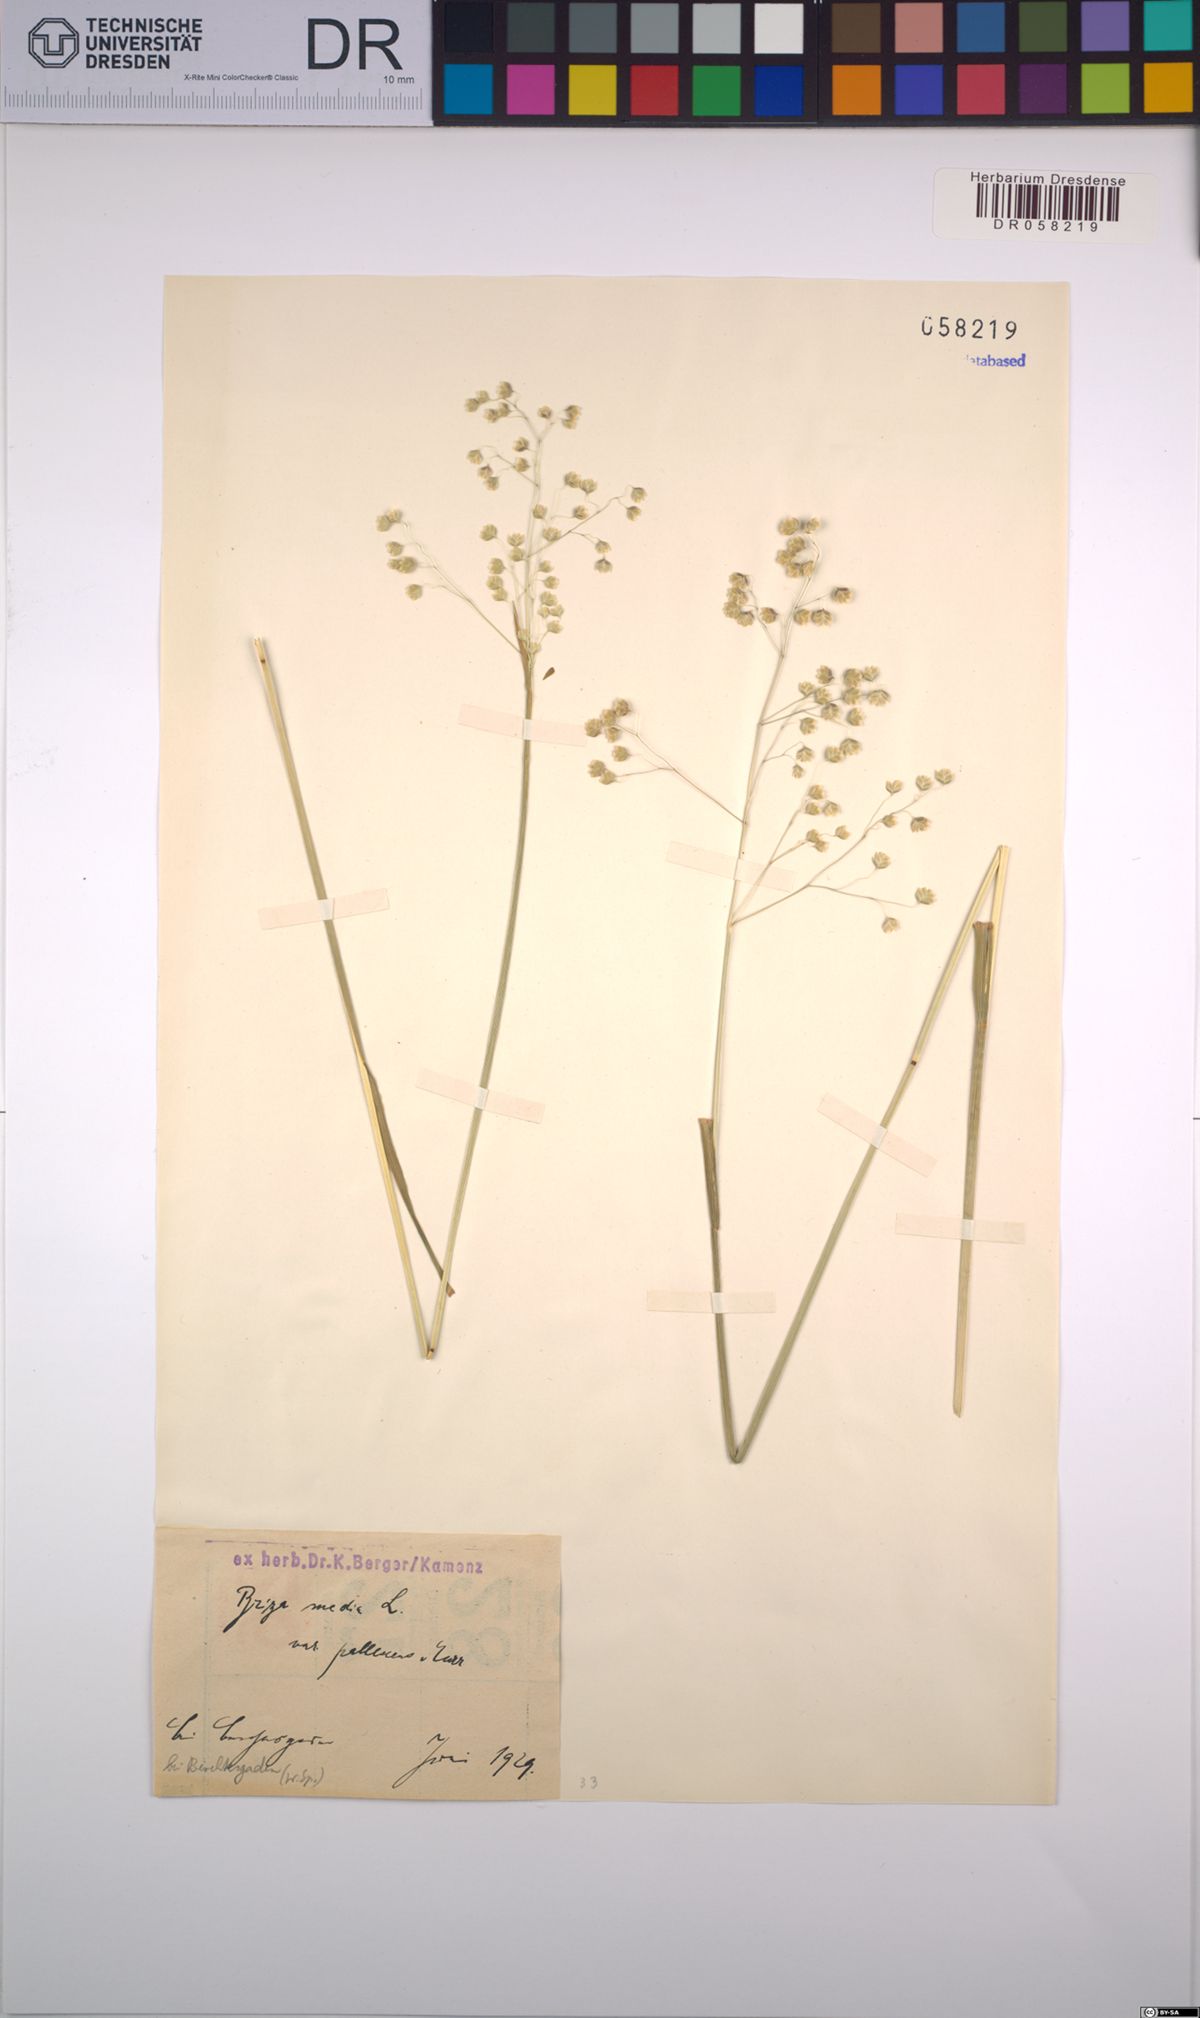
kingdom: Plantae
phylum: Tracheophyta
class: Liliopsida
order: Poales
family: Poaceae
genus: Briza
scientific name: Briza media
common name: Quaking grass
